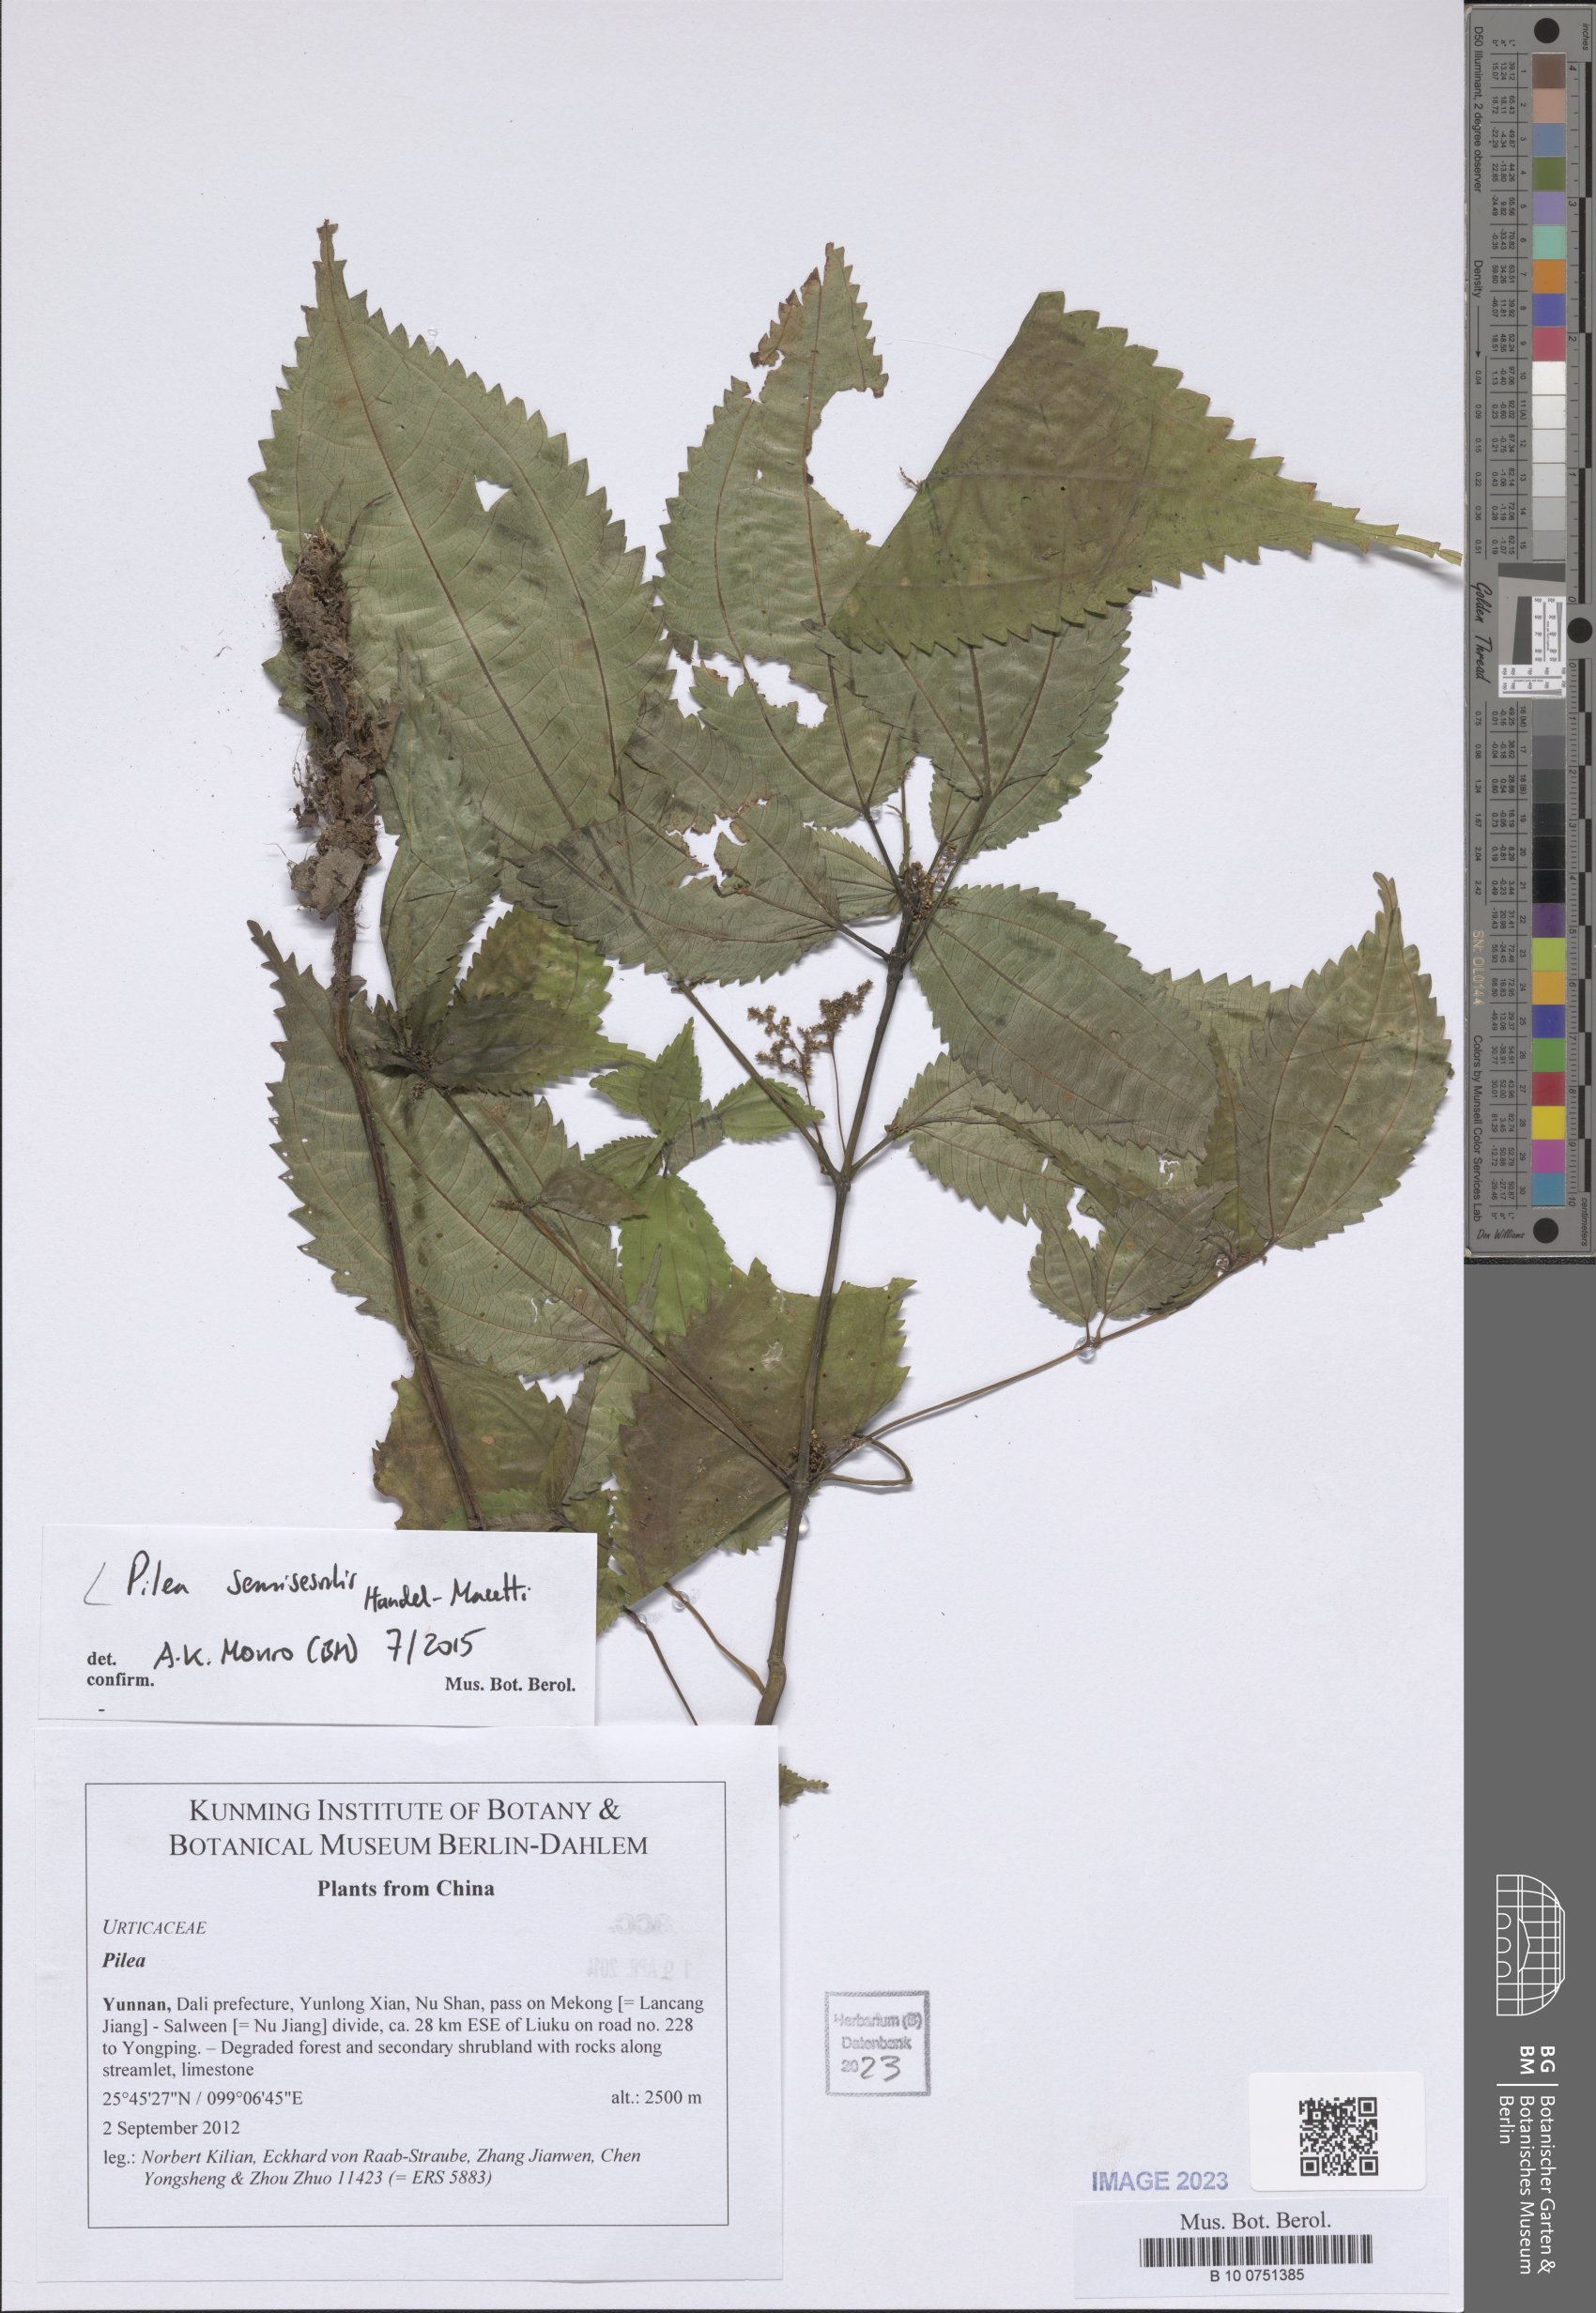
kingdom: Plantae
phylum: Tracheophyta
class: Magnoliopsida
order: Rosales
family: Urticaceae
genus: Pilea
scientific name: Pilea semisessilis
